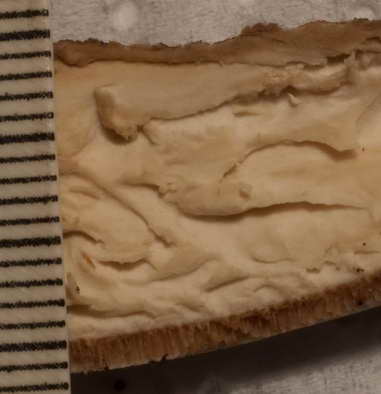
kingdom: Fungi
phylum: Basidiomycota
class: Agaricomycetes
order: Polyporales
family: Polyporaceae
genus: Cerioporus
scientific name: Cerioporus varius
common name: foranderlig stilkporesvamp
